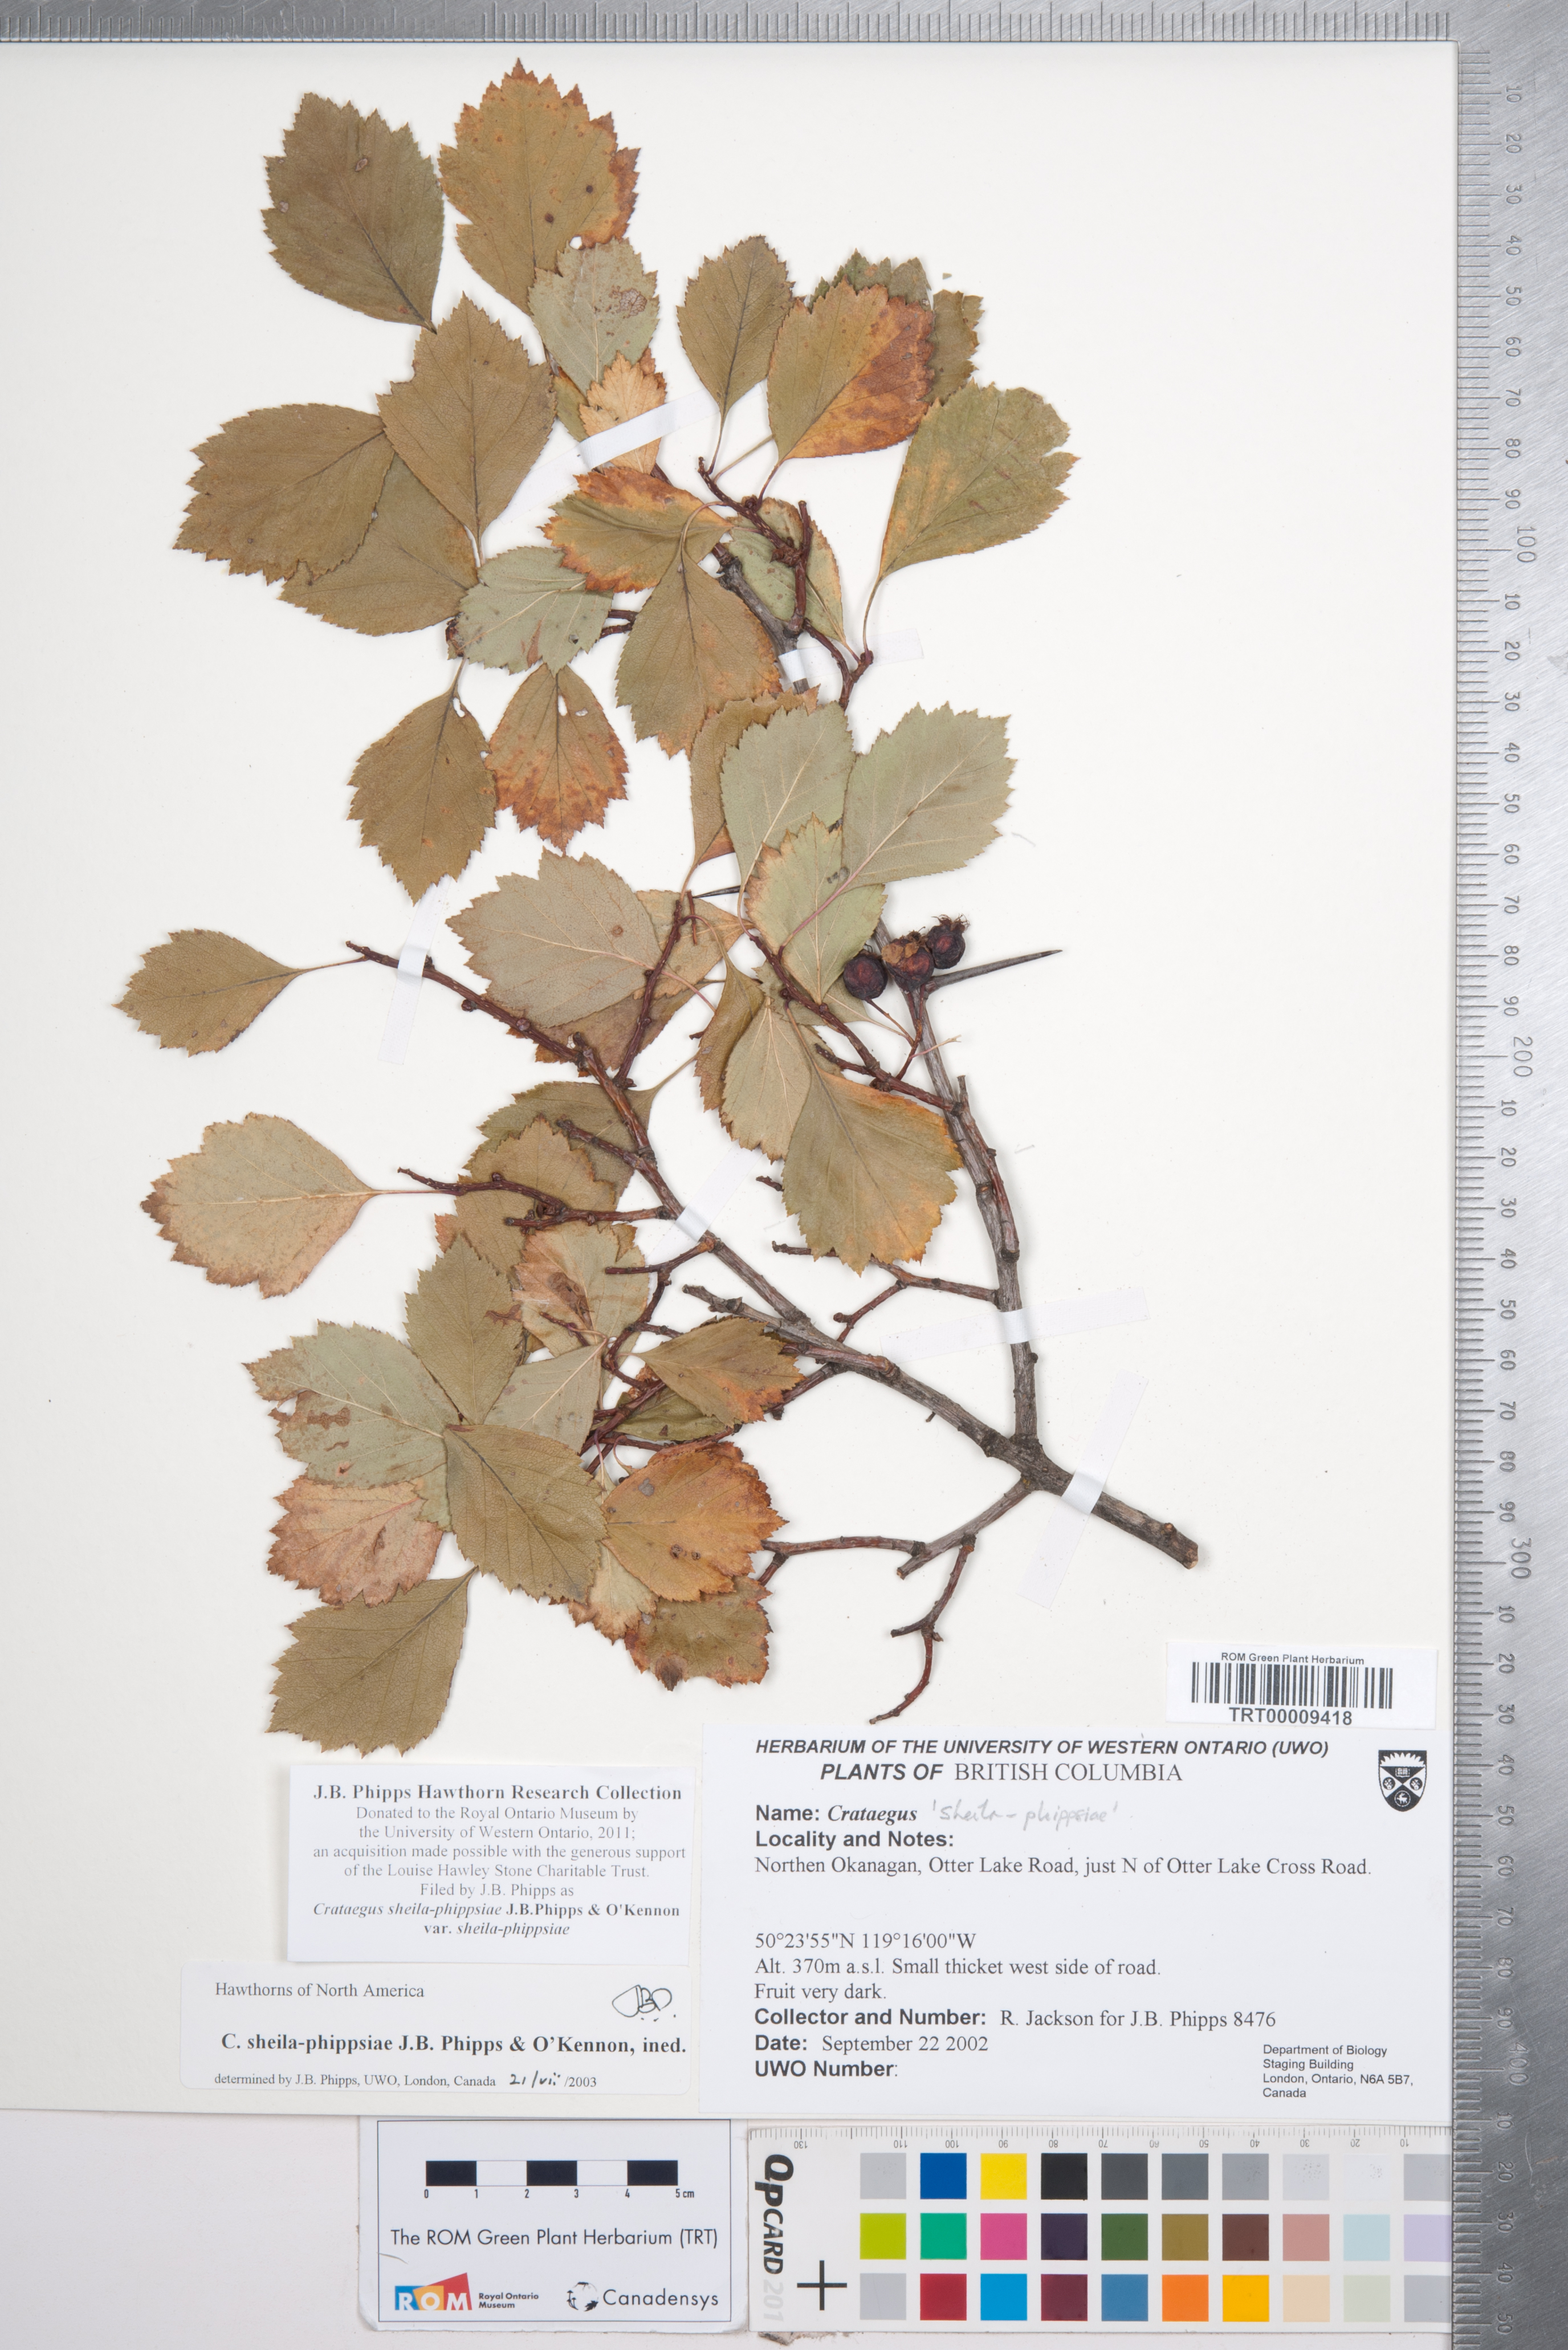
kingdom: Plantae
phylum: Tracheophyta
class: Magnoliopsida
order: Rosales
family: Rosaceae
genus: Crataegus
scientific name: Crataegus sheila-phippsiae
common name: Sheila phipps' hawthorn
